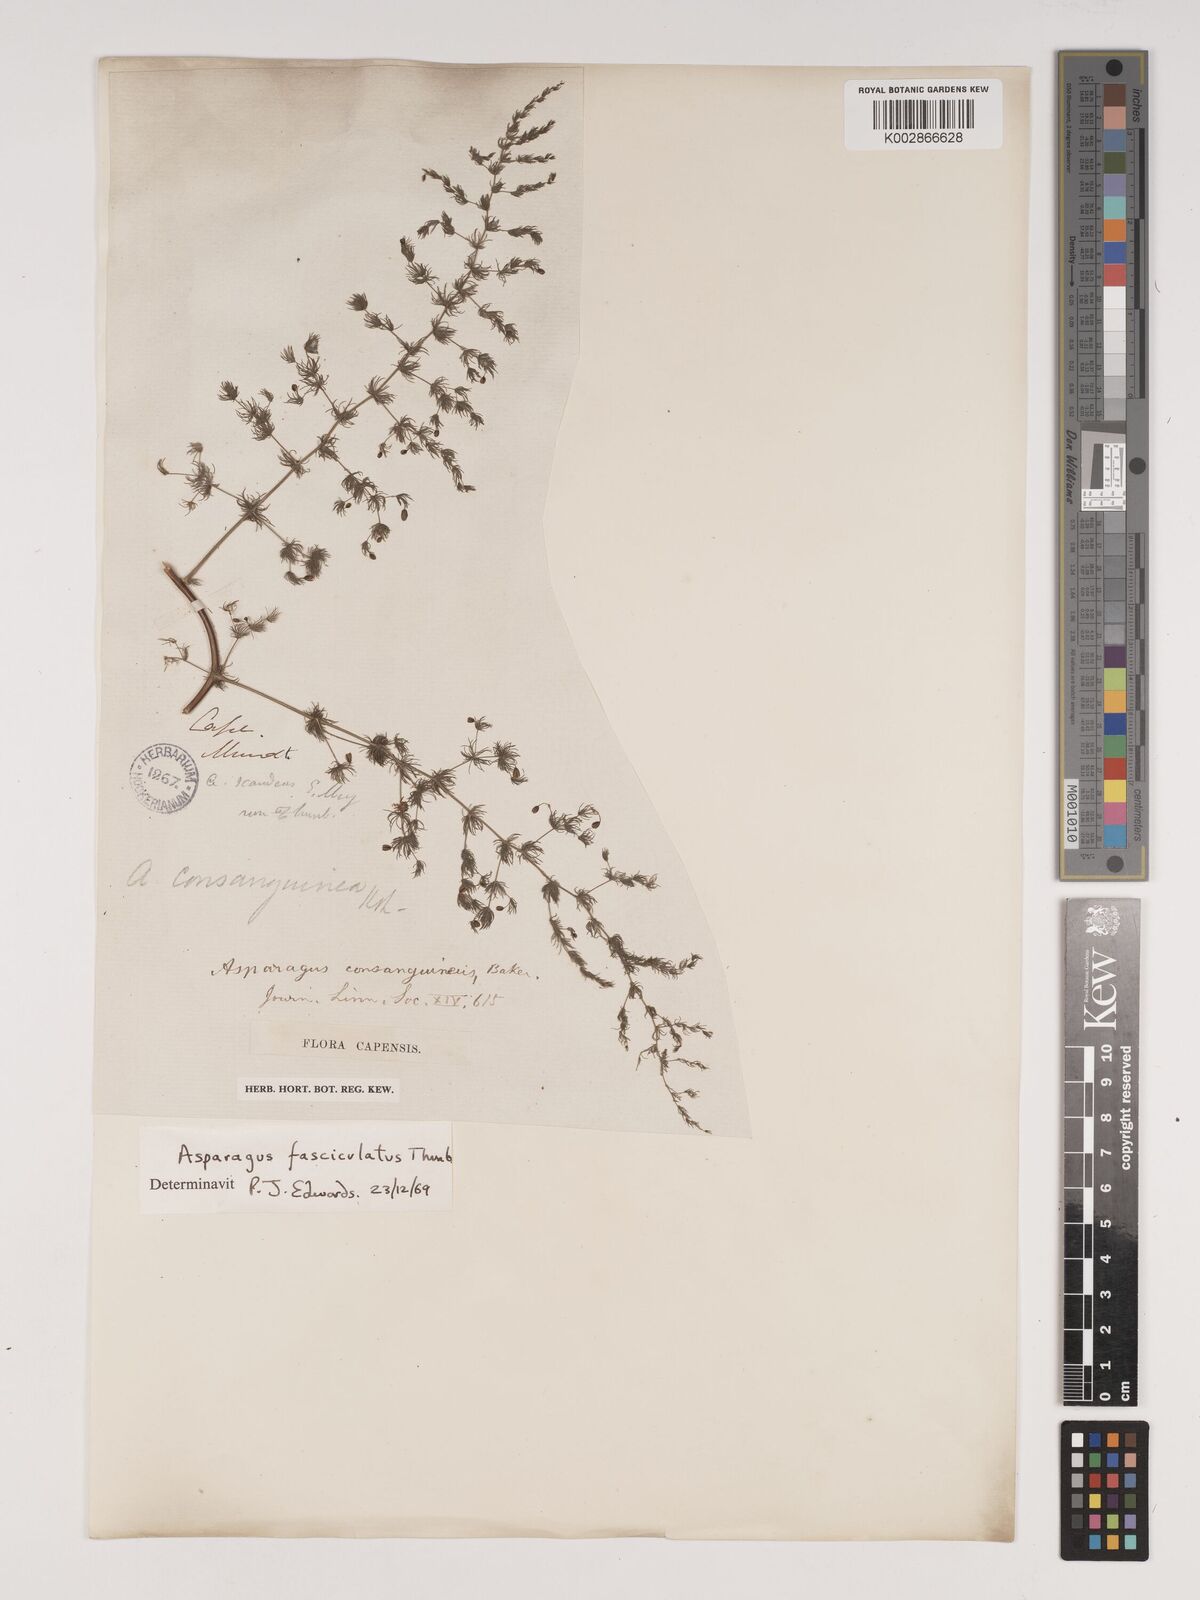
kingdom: Plantae
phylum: Tracheophyta
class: Liliopsida
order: Asparagales
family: Asparagaceae
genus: Asparagus
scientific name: Asparagus fasciculatus
